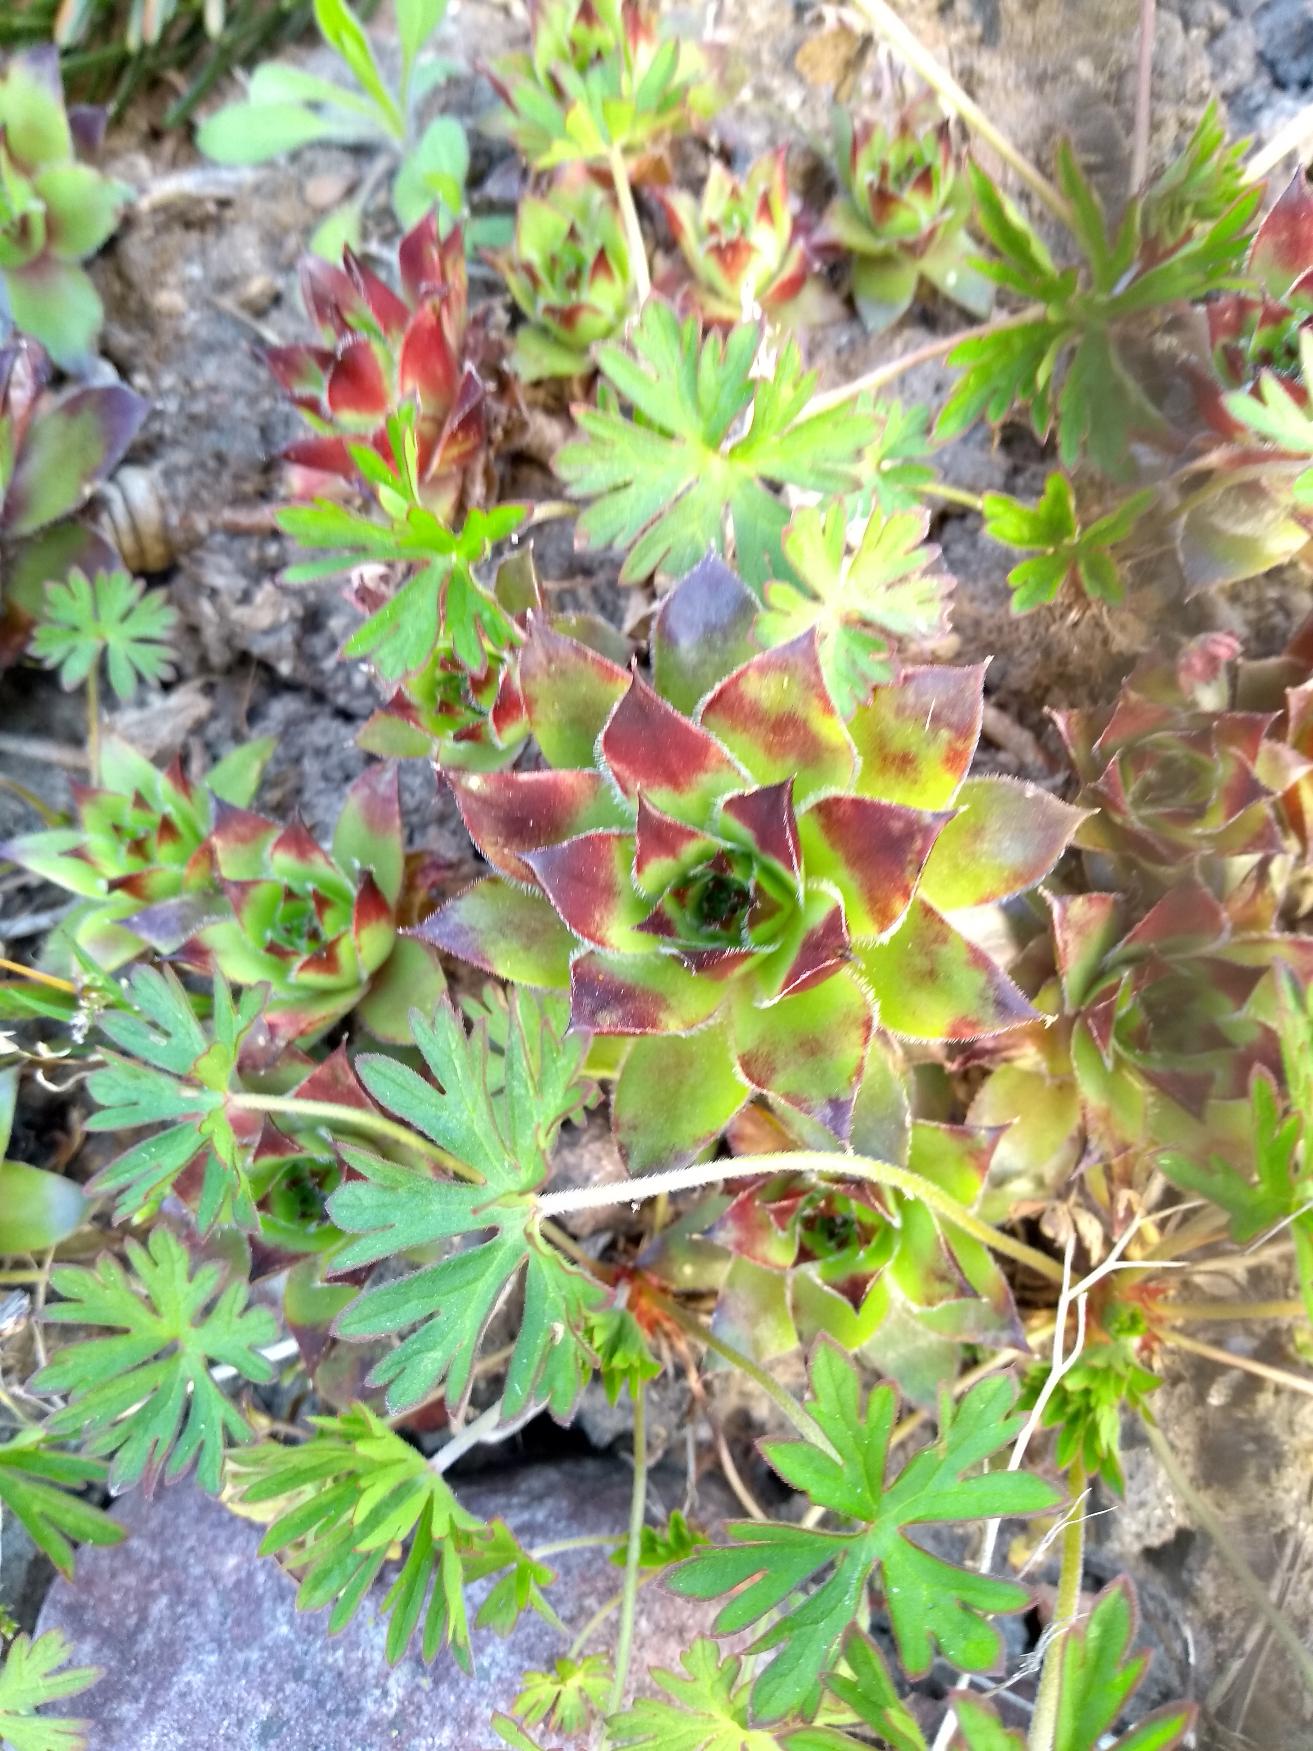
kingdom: Plantae
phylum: Tracheophyta
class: Magnoliopsida
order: Saxifragales
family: Crassulaceae
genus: Sempervivum
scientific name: Sempervivum tectorum
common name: Husløg
